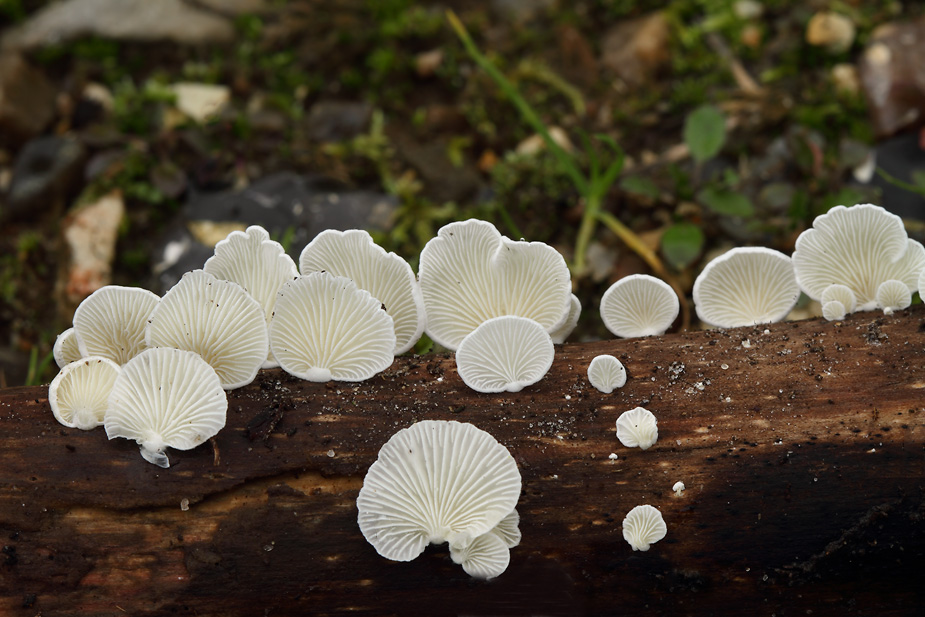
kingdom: Fungi
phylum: Basidiomycota
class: Agaricomycetes
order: Agaricales
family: Cyphellaceae
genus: Cheimonophyllum
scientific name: Cheimonophyllum
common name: vifteblad
